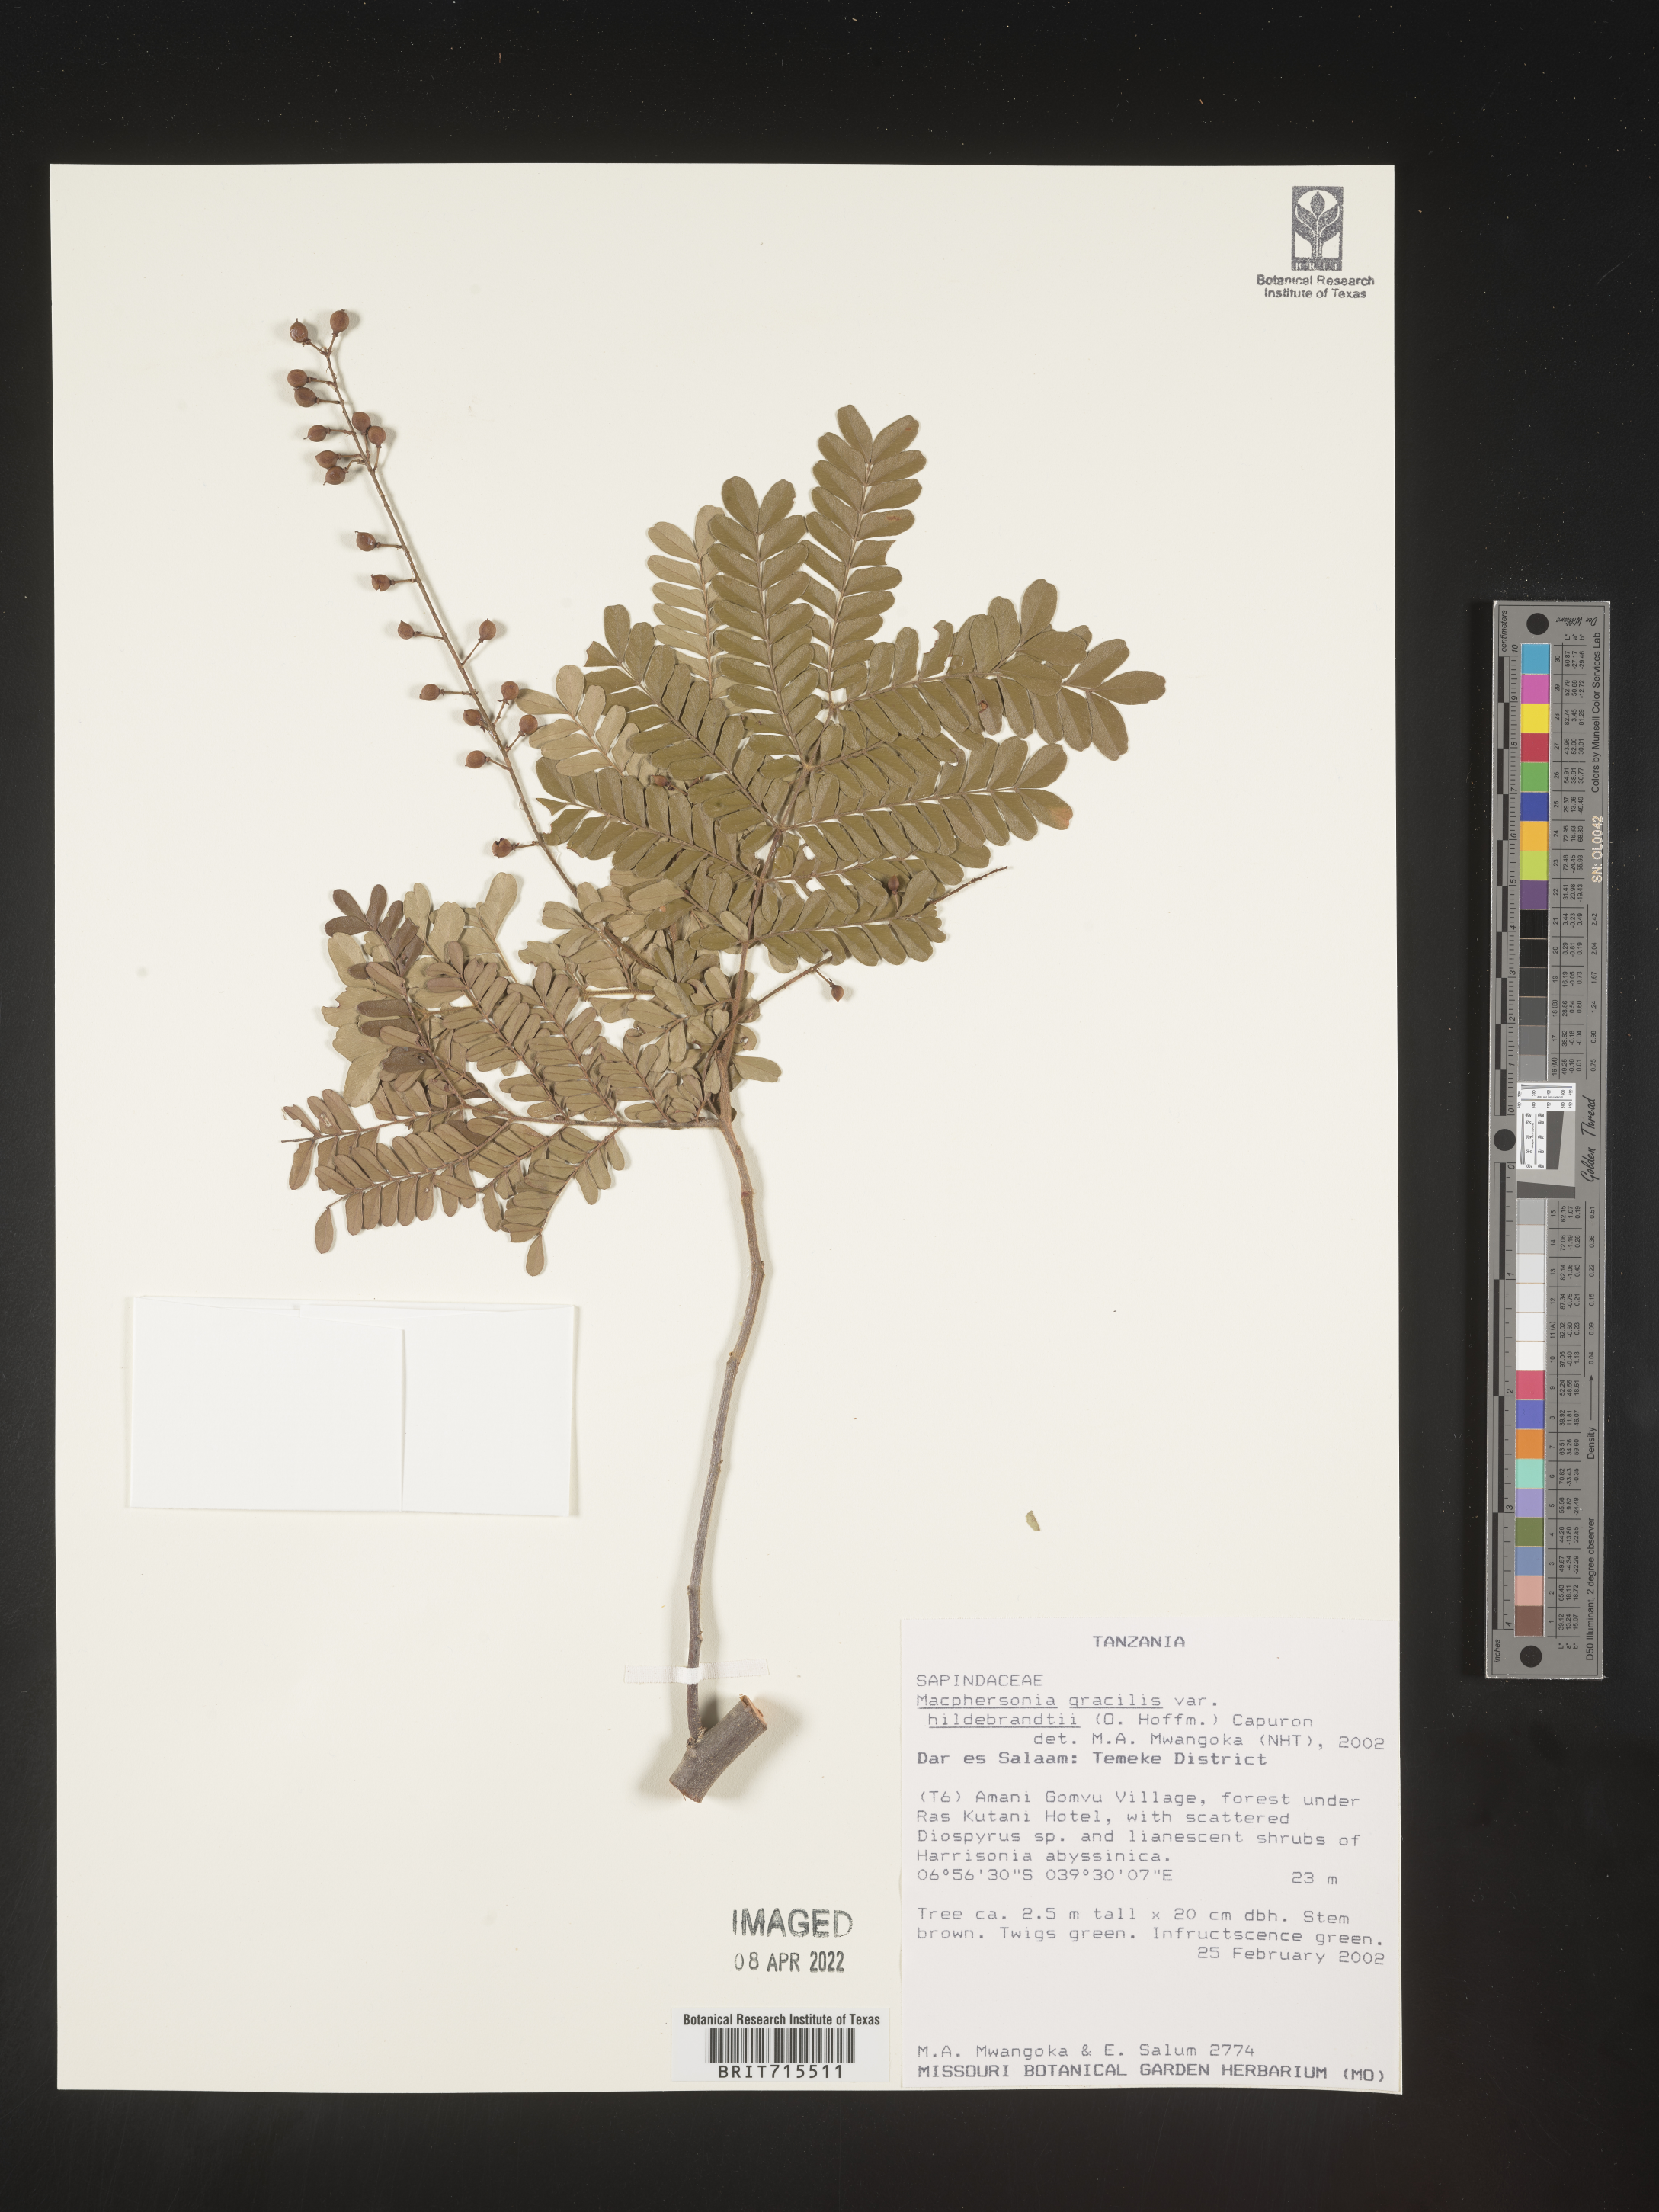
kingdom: Plantae
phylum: Tracheophyta
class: Magnoliopsida
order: Sapindales
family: Sapindaceae
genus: Macphersonia
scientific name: Macphersonia
